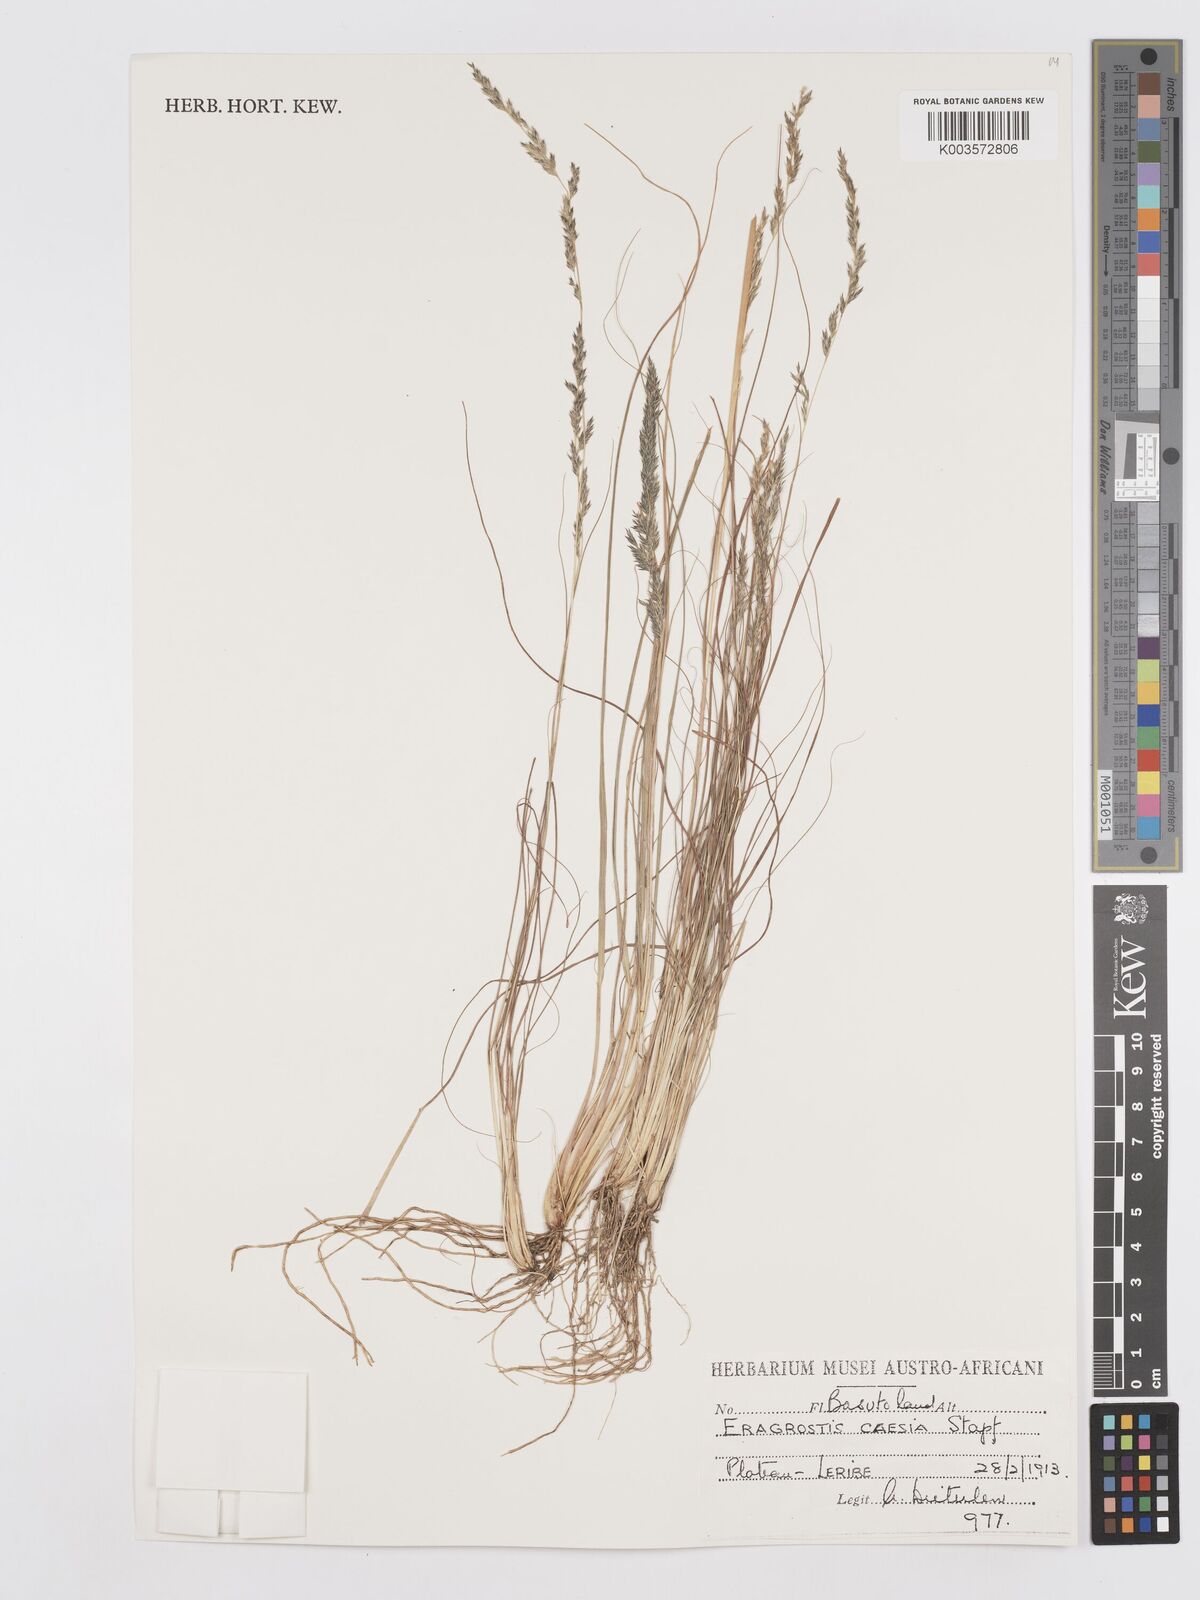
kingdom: Plantae
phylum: Tracheophyta
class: Liliopsida
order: Poales
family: Poaceae
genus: Eragrostis
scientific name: Eragrostis caesia
